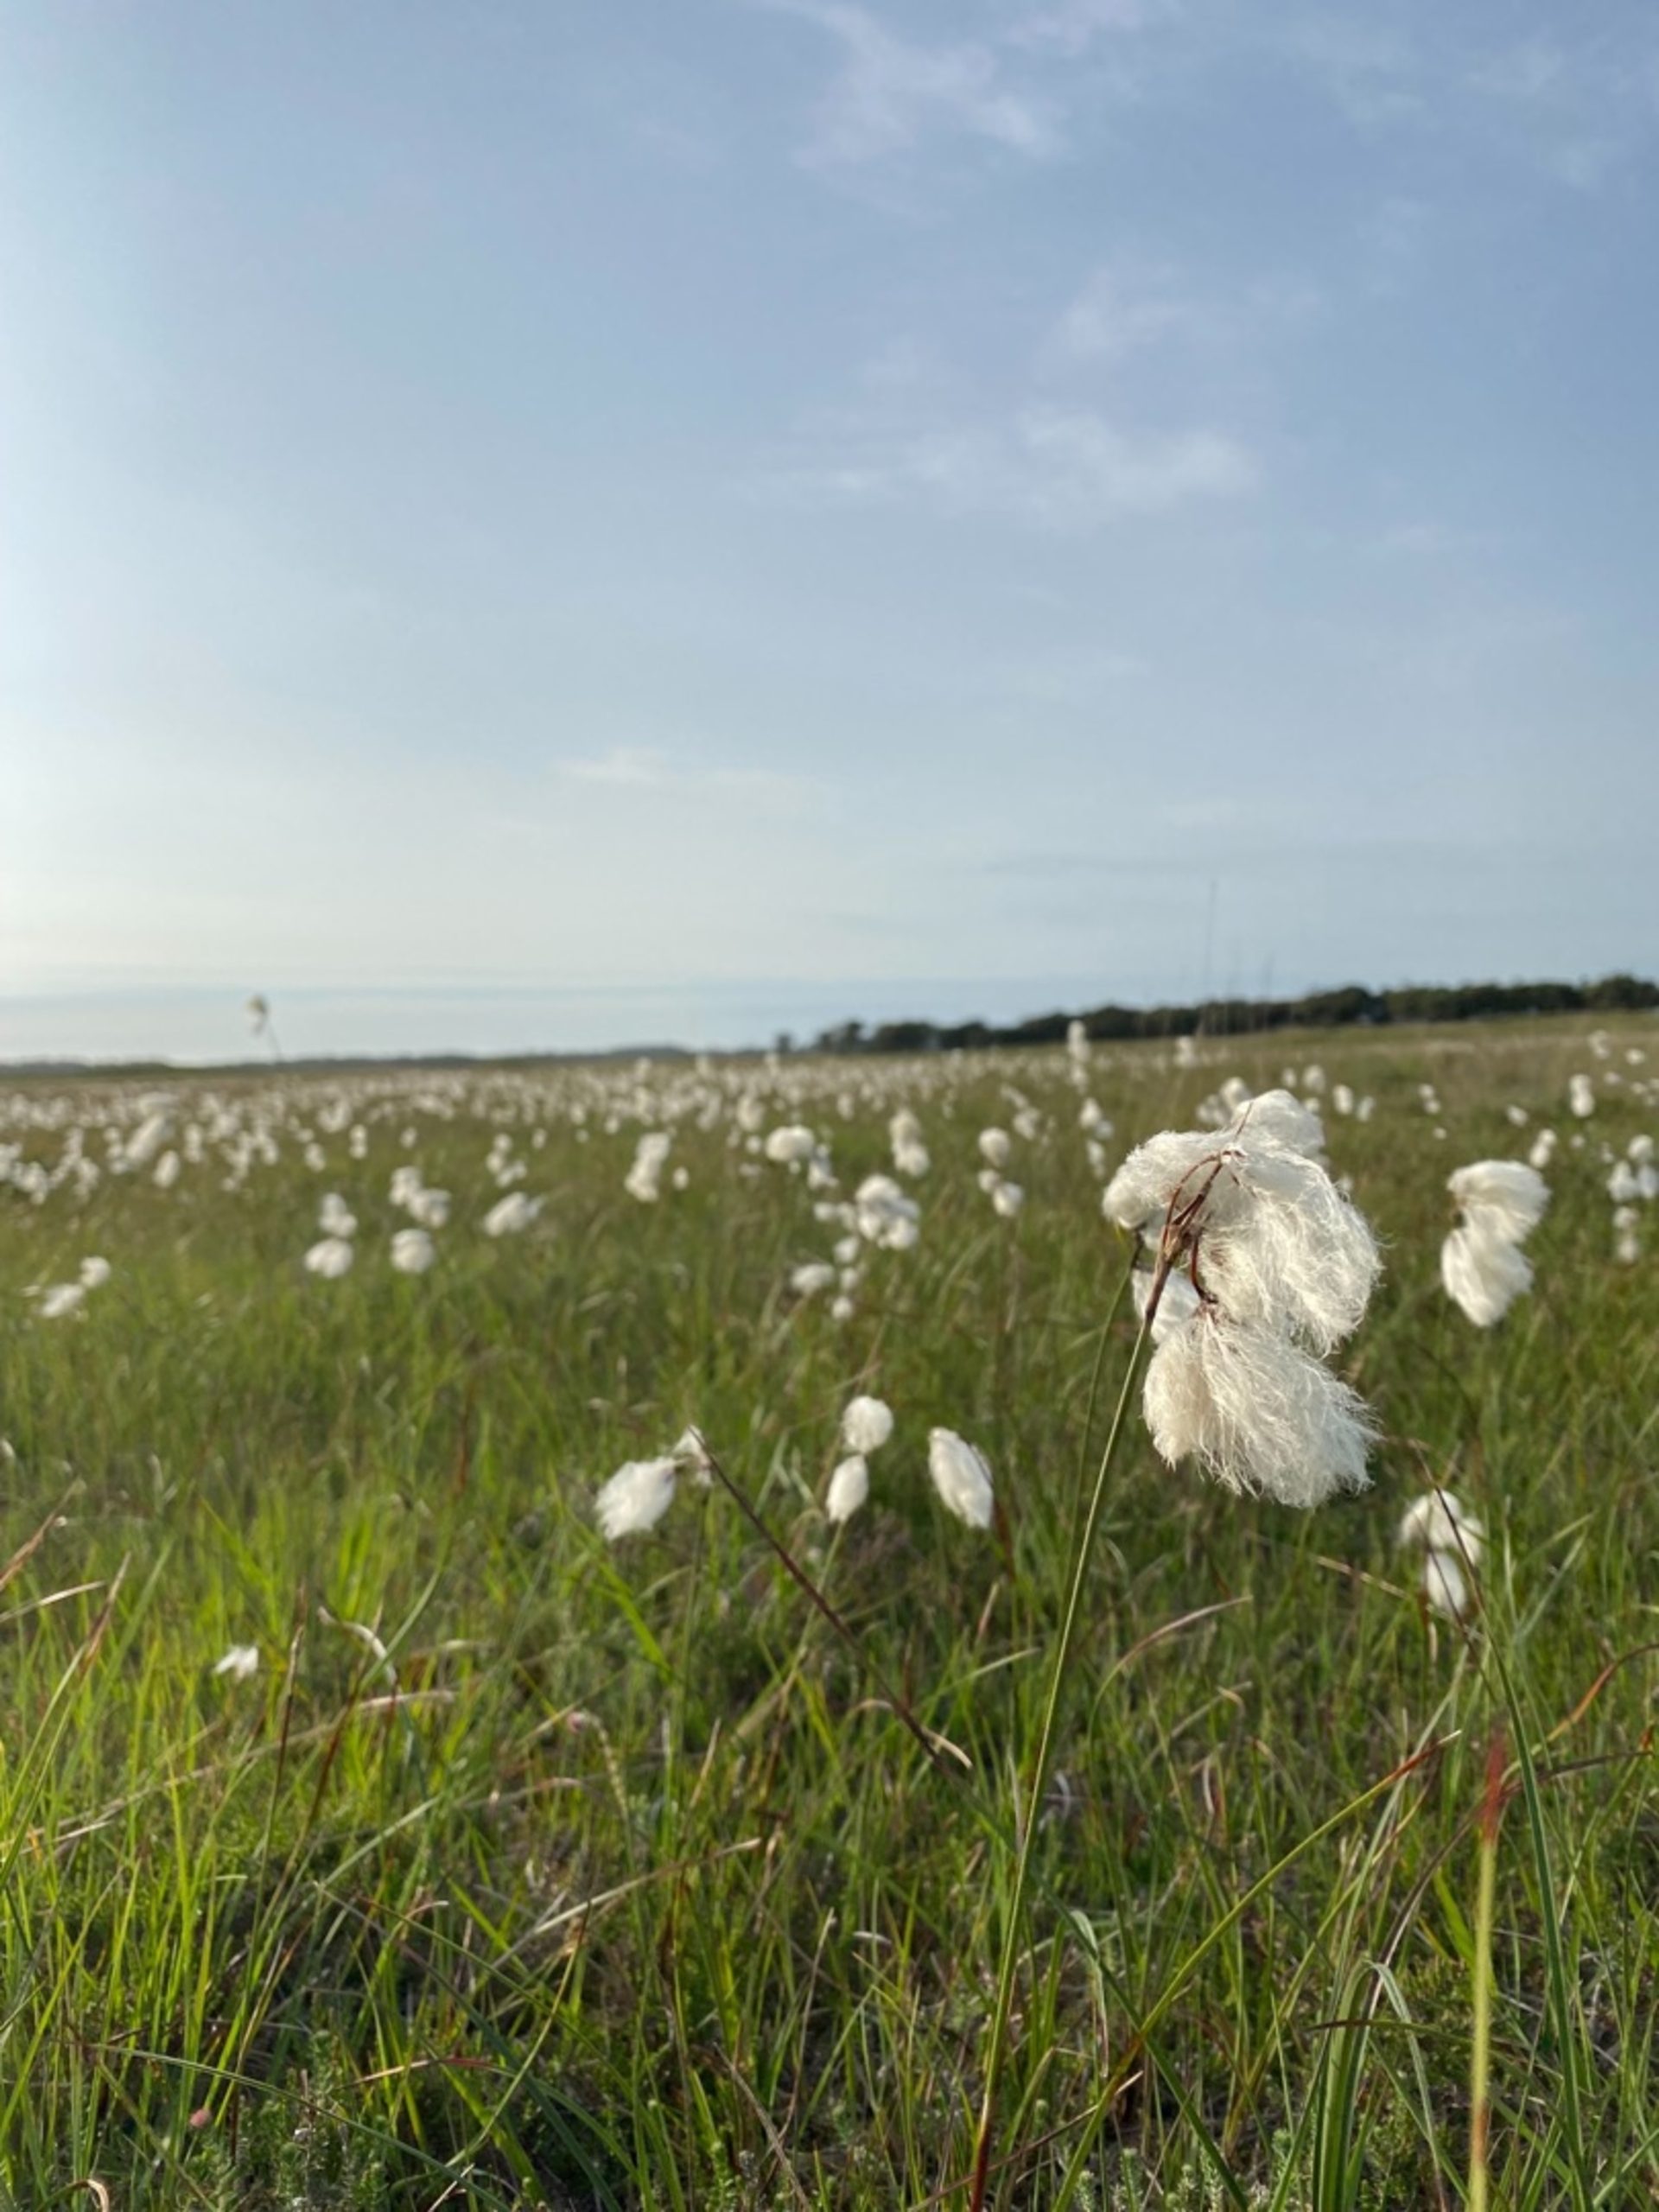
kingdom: Plantae
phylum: Tracheophyta
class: Liliopsida
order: Poales
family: Cyperaceae
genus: Eriophorum
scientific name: Eriophorum angustifolium
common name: Smalbladet kæruld
